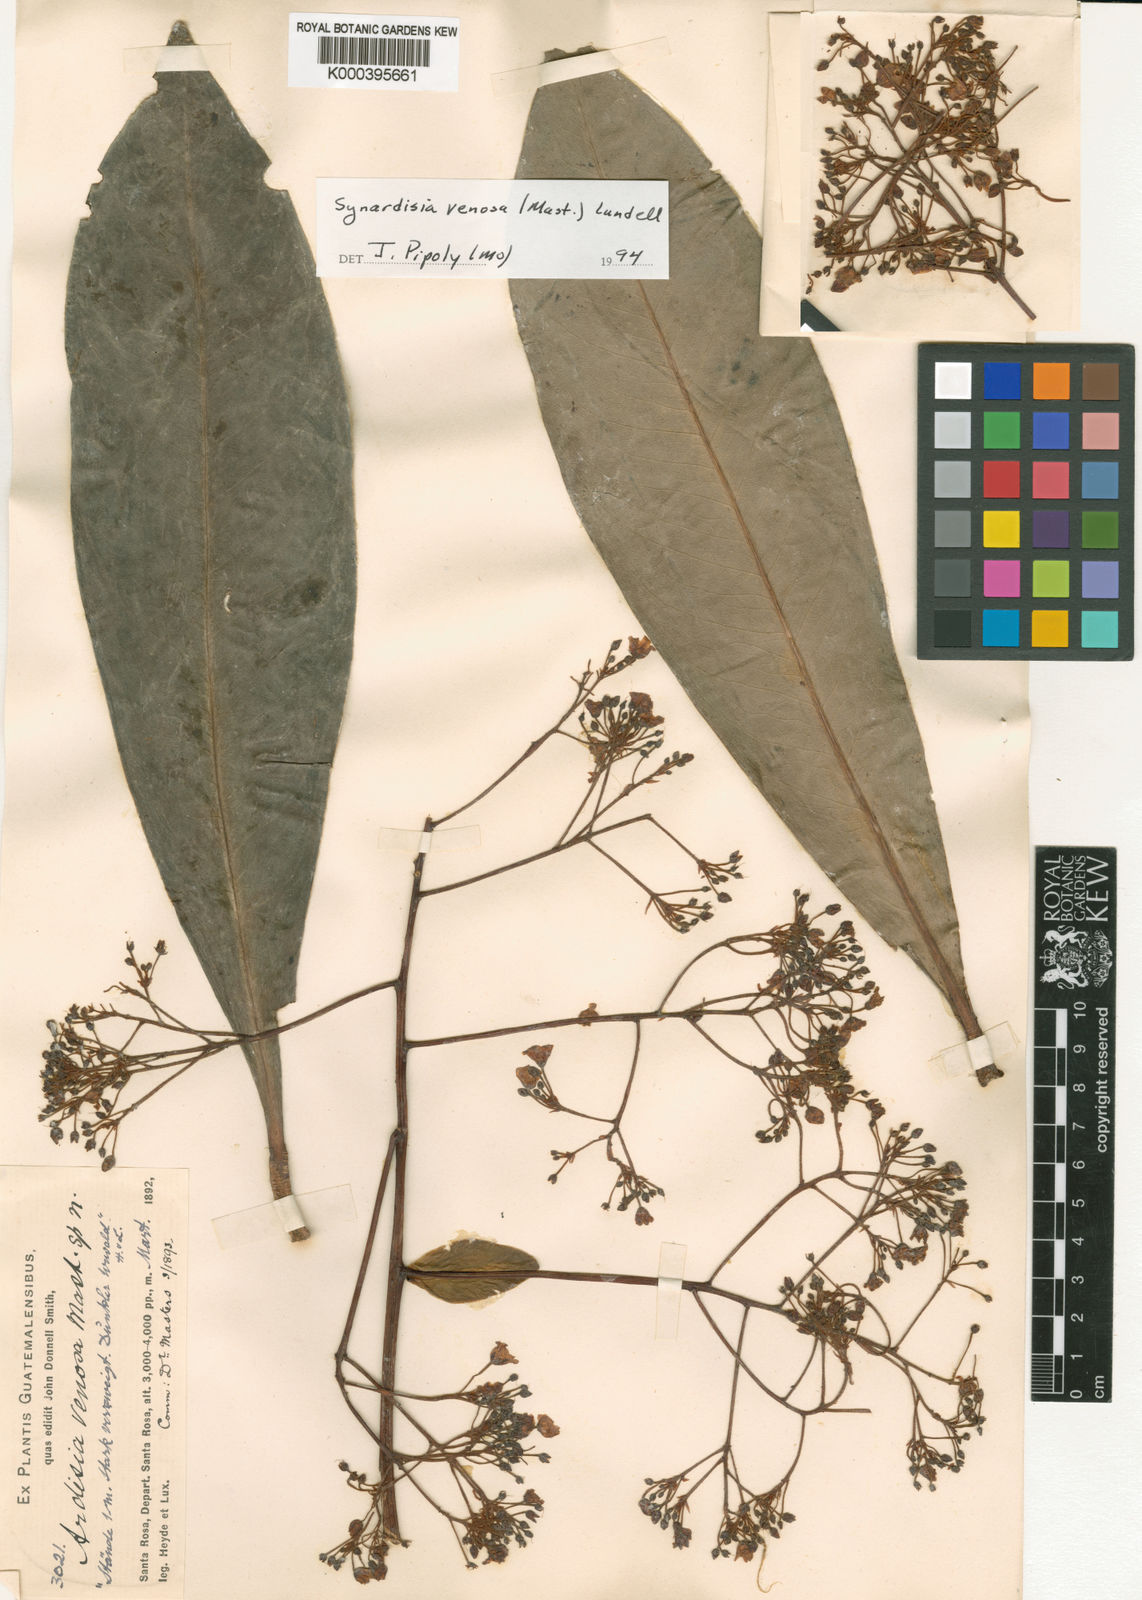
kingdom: Plantae
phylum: Tracheophyta
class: Magnoliopsida
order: Ericales
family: Primulaceae
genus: Ardisia
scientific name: Ardisia
